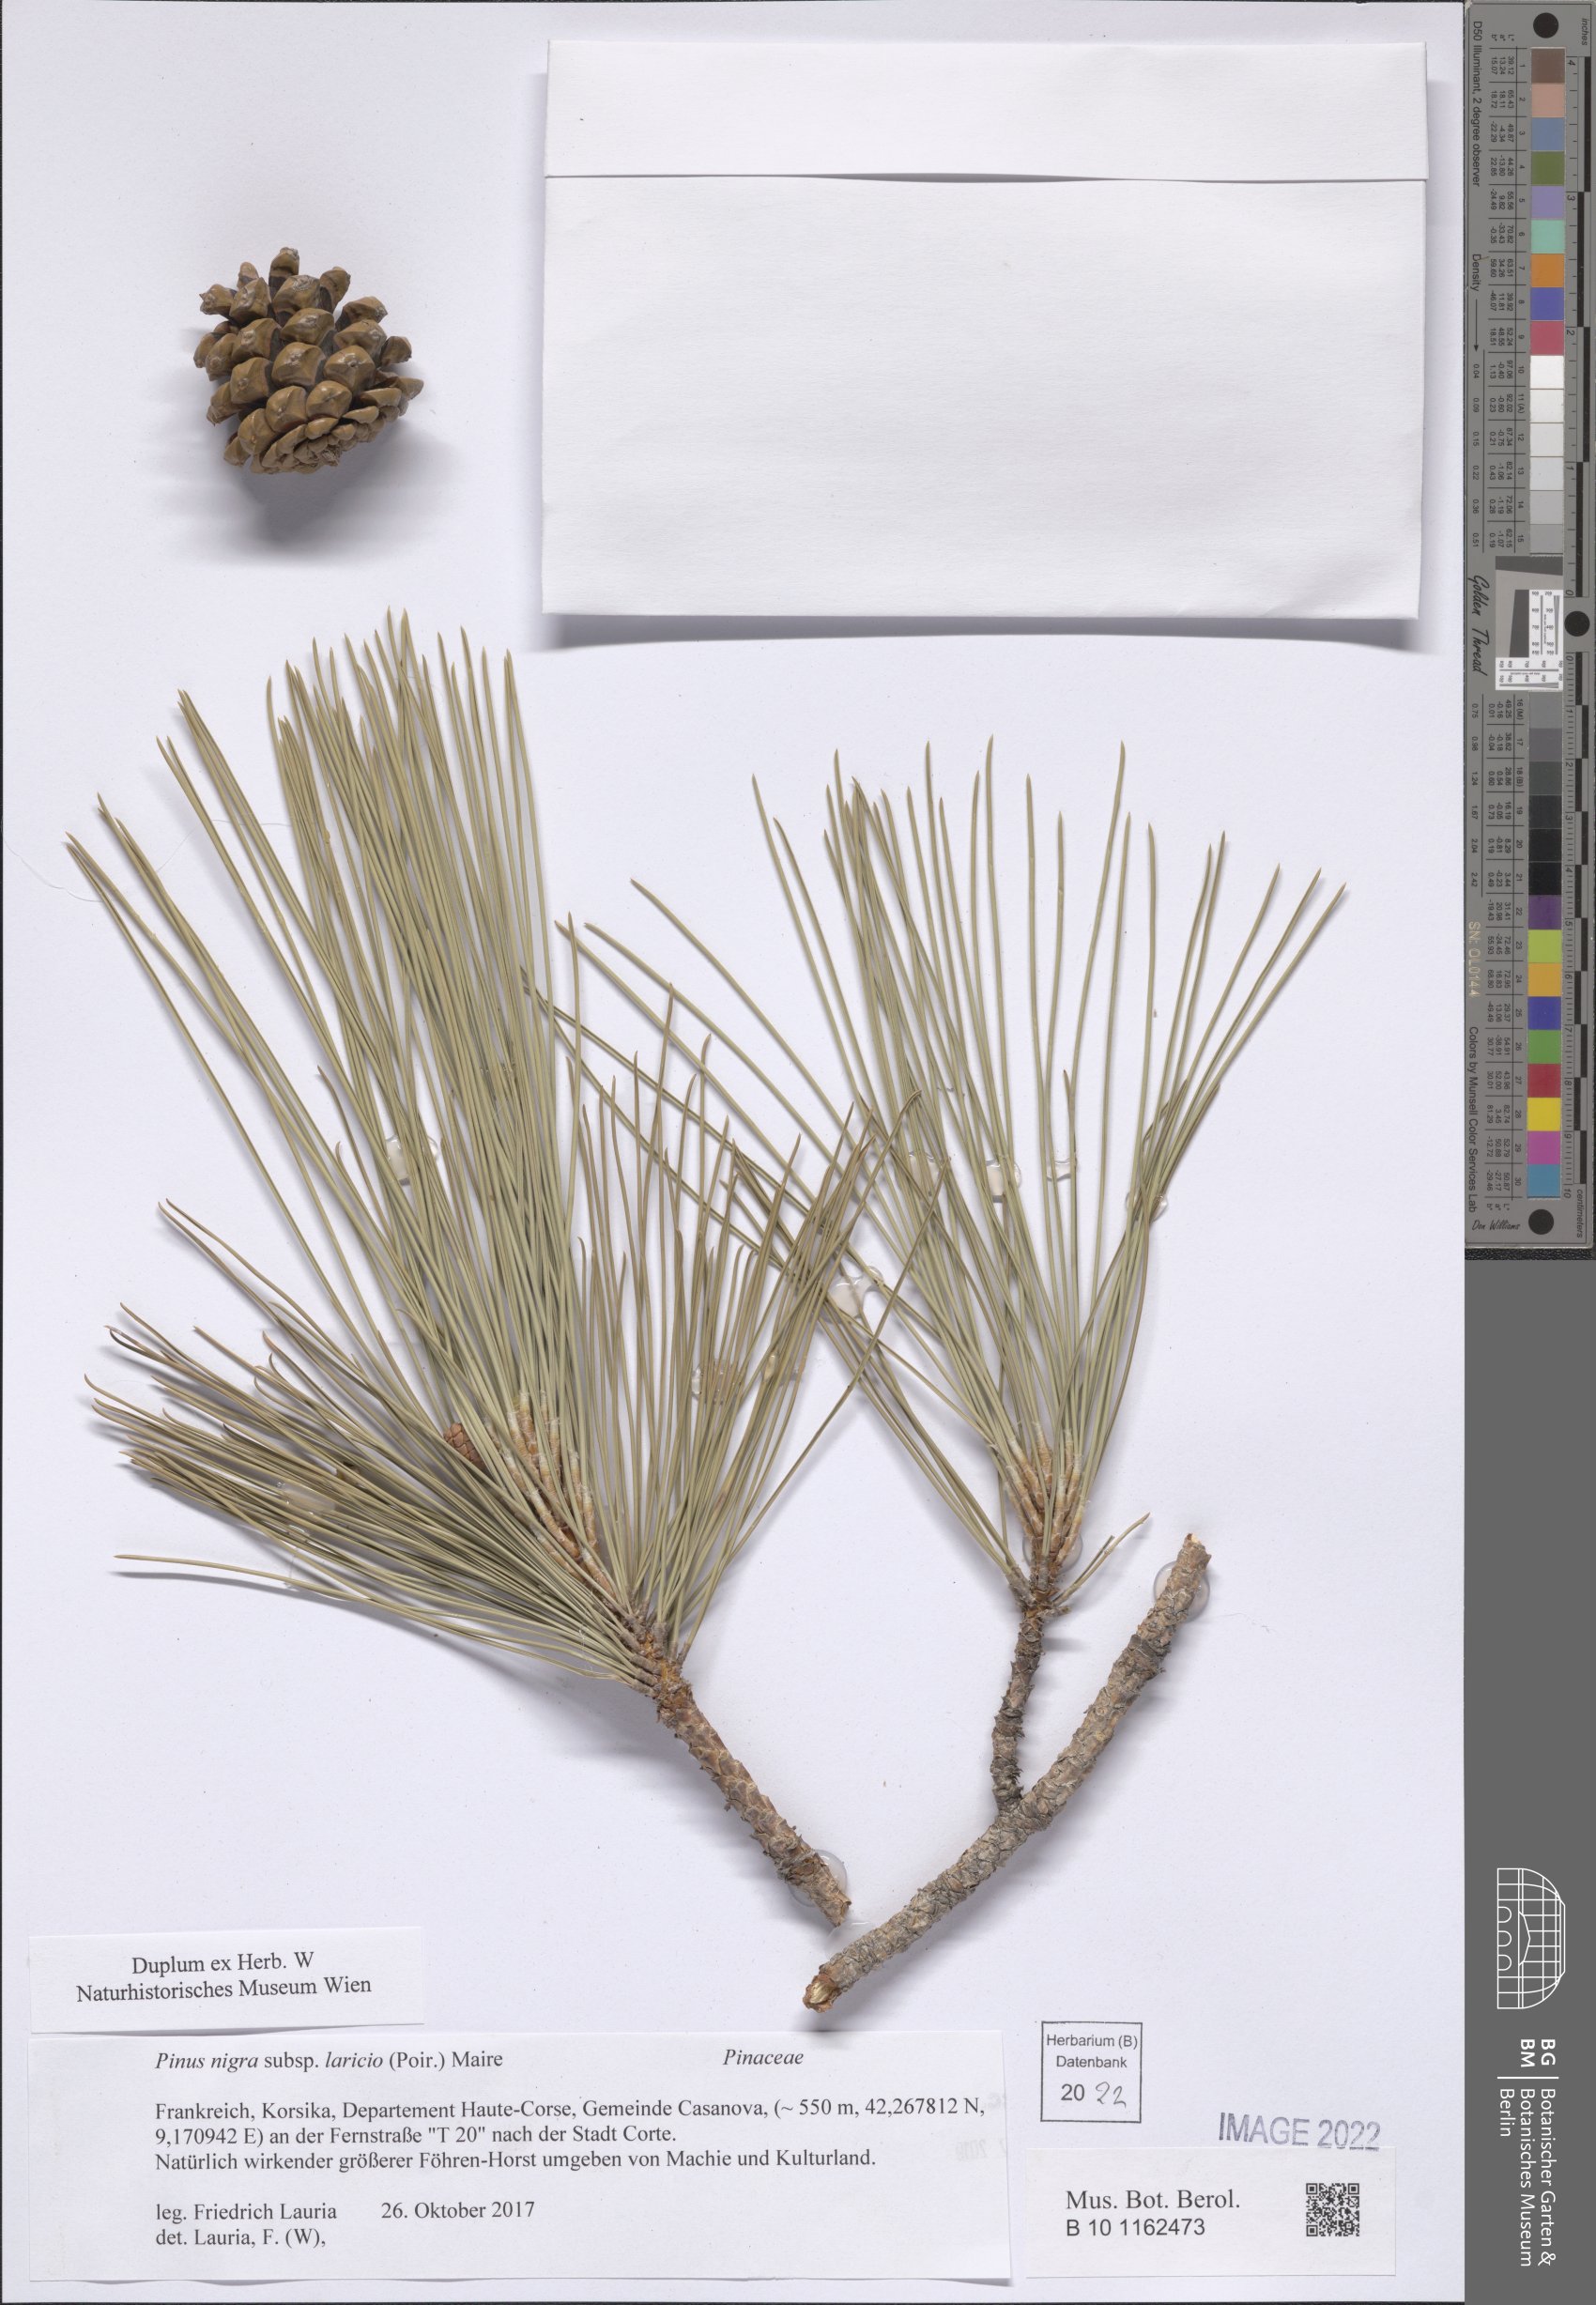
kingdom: Plantae
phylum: Tracheophyta
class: Pinopsida
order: Pinales
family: Pinaceae
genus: Pinus
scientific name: Pinus nigra
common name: Austrian pine
